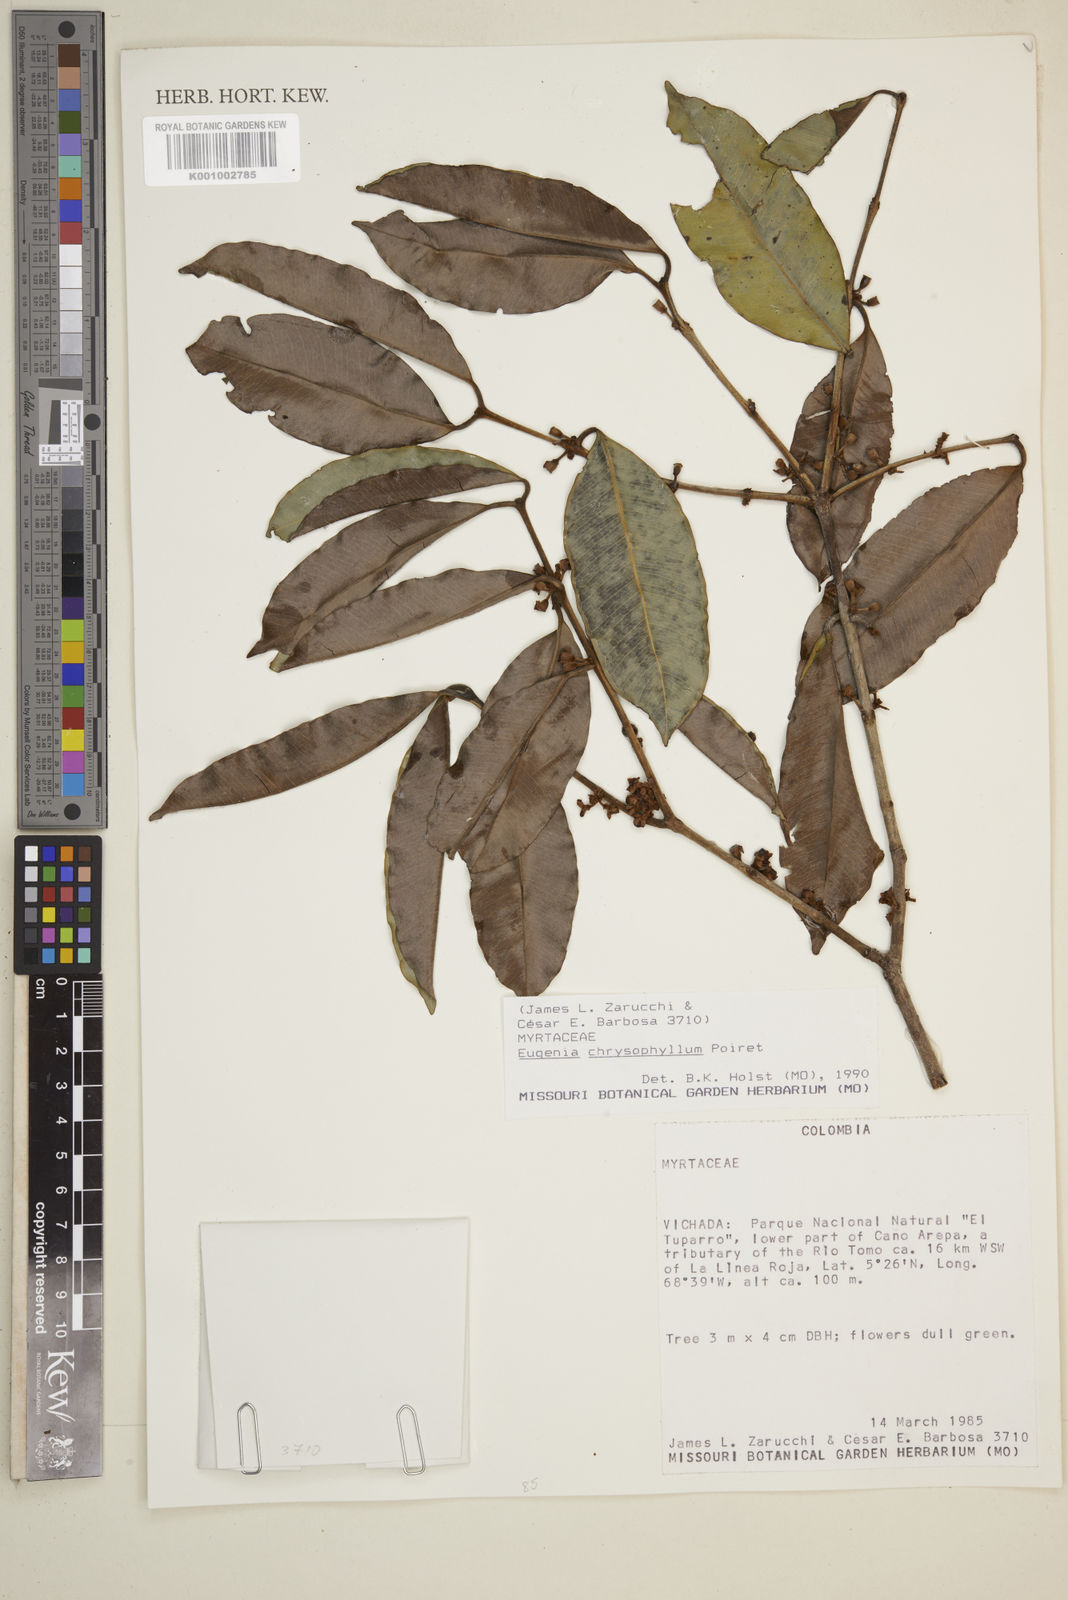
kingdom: Plantae
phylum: Tracheophyta
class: Magnoliopsida
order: Myrtales
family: Myrtaceae
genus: Eugenia
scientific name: Eugenia chrysophyllum
